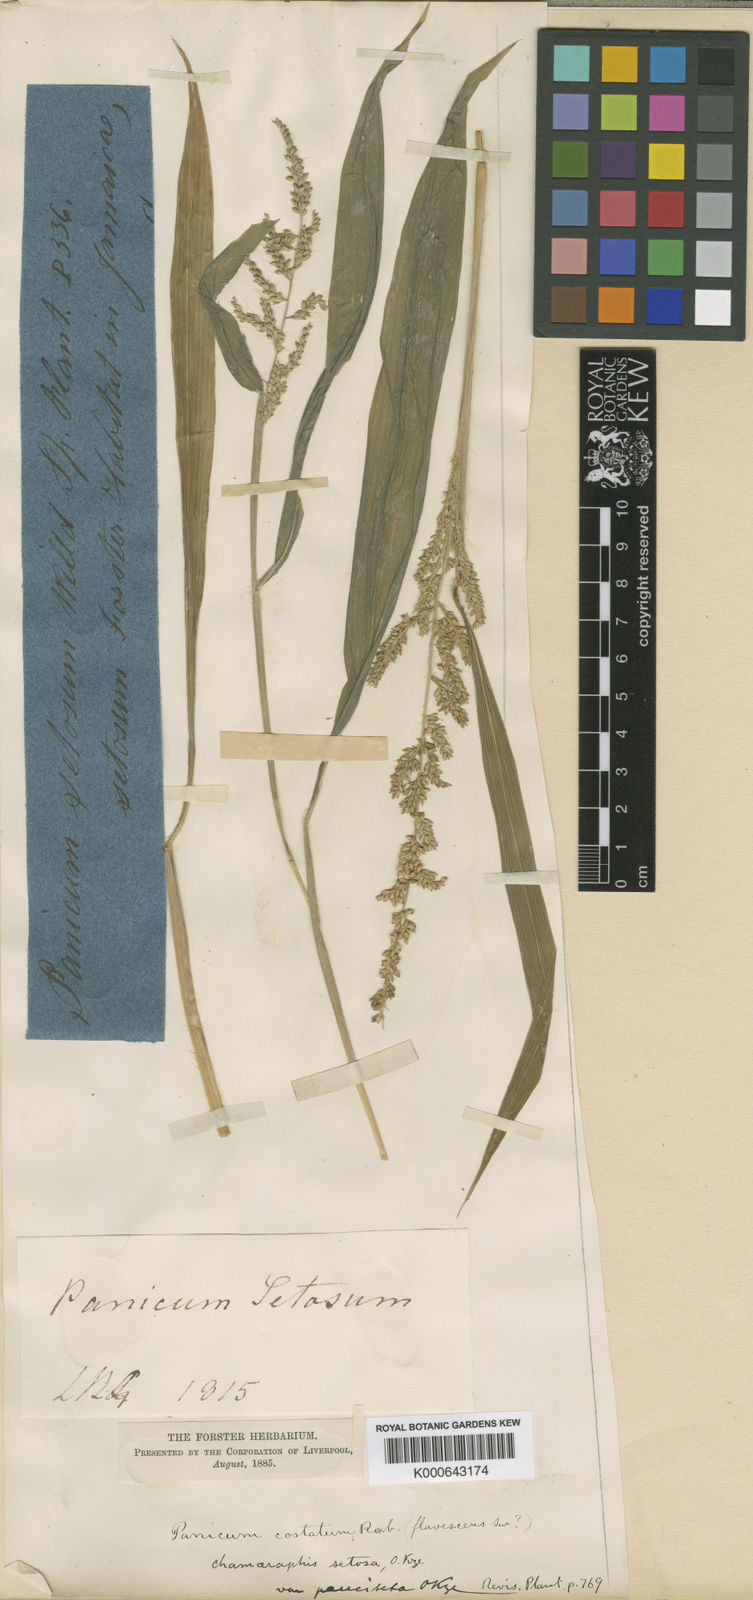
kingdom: Plantae
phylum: Tracheophyta
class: Liliopsida
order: Poales
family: Poaceae
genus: Setaria
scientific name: Setaria barbata
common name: East indian bristlegrass
